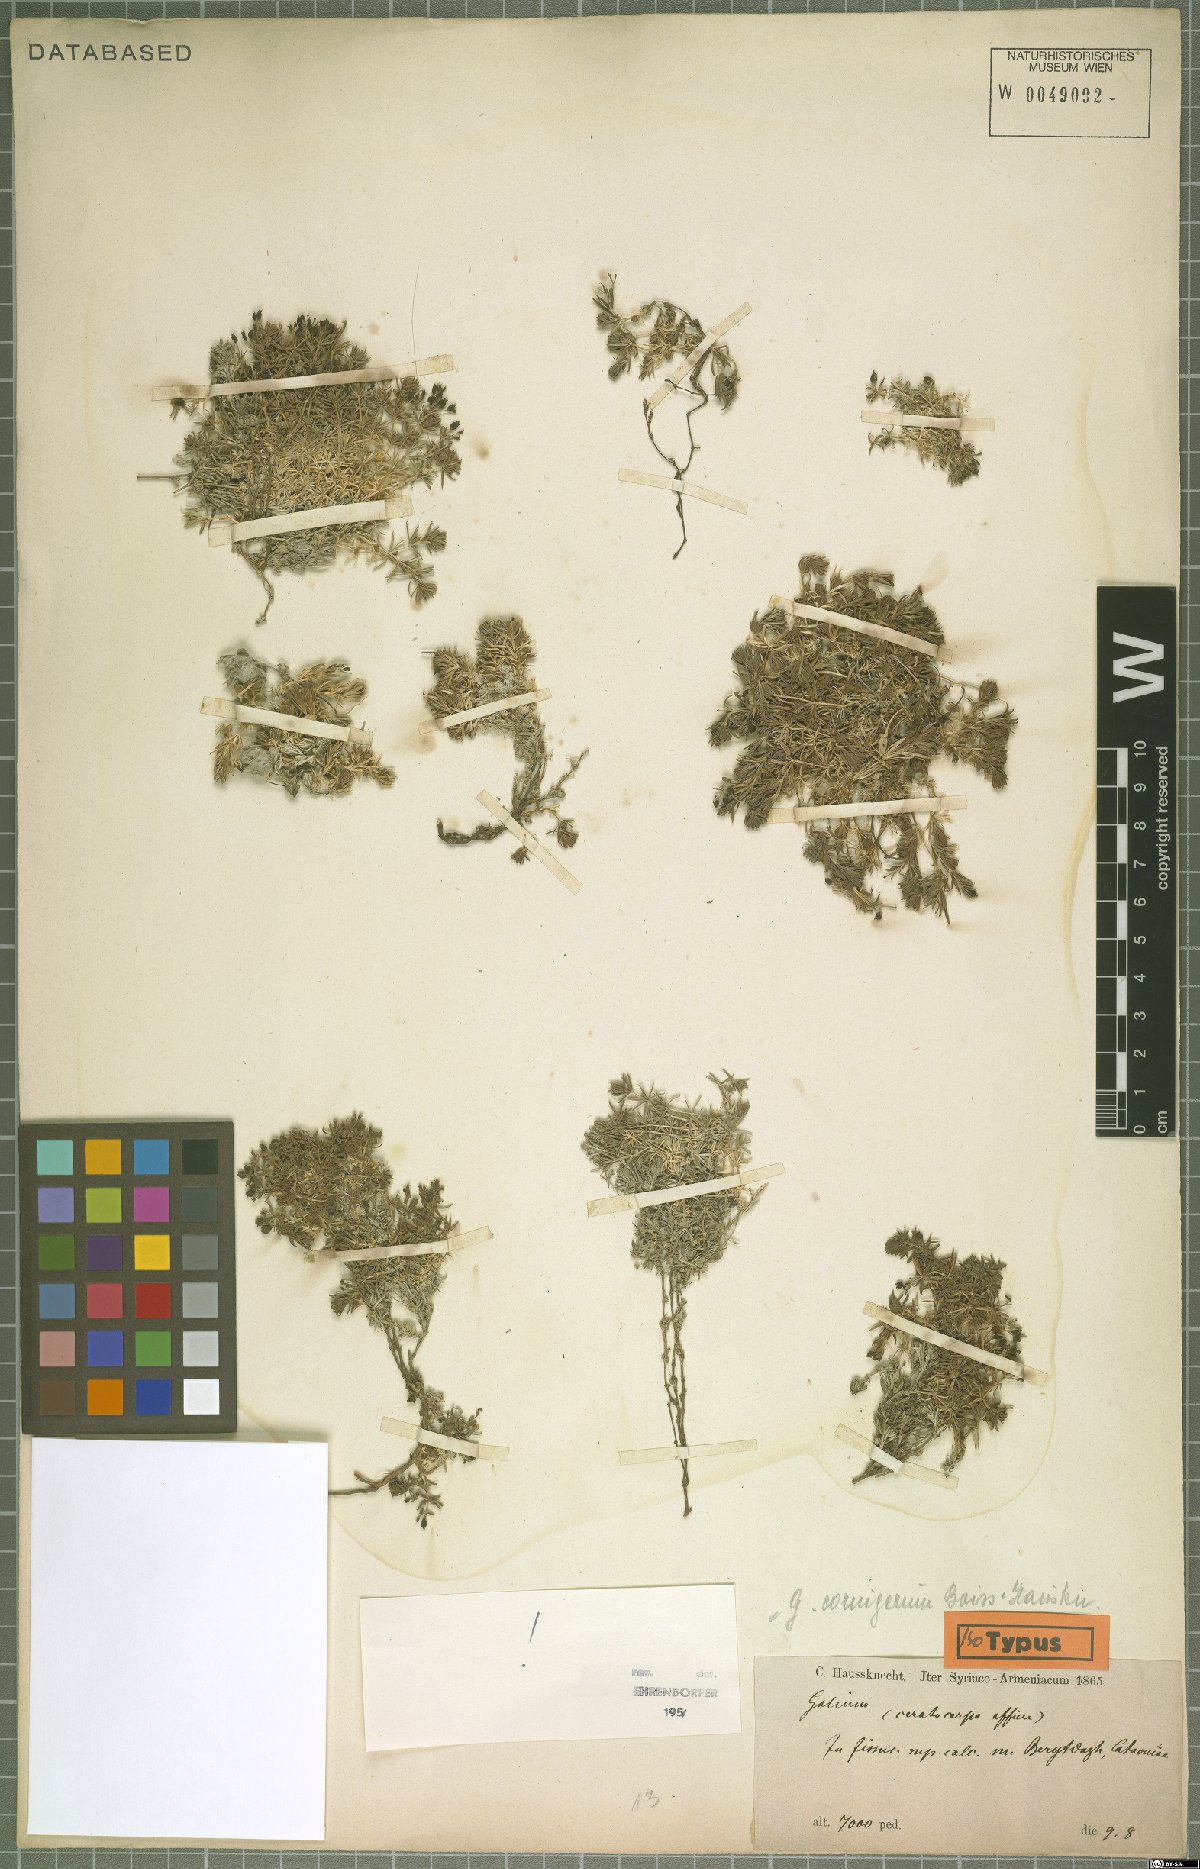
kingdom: Plantae
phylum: Tracheophyta
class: Magnoliopsida
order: Gentianales
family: Rubiaceae
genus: Galium
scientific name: Galium cornigerum
